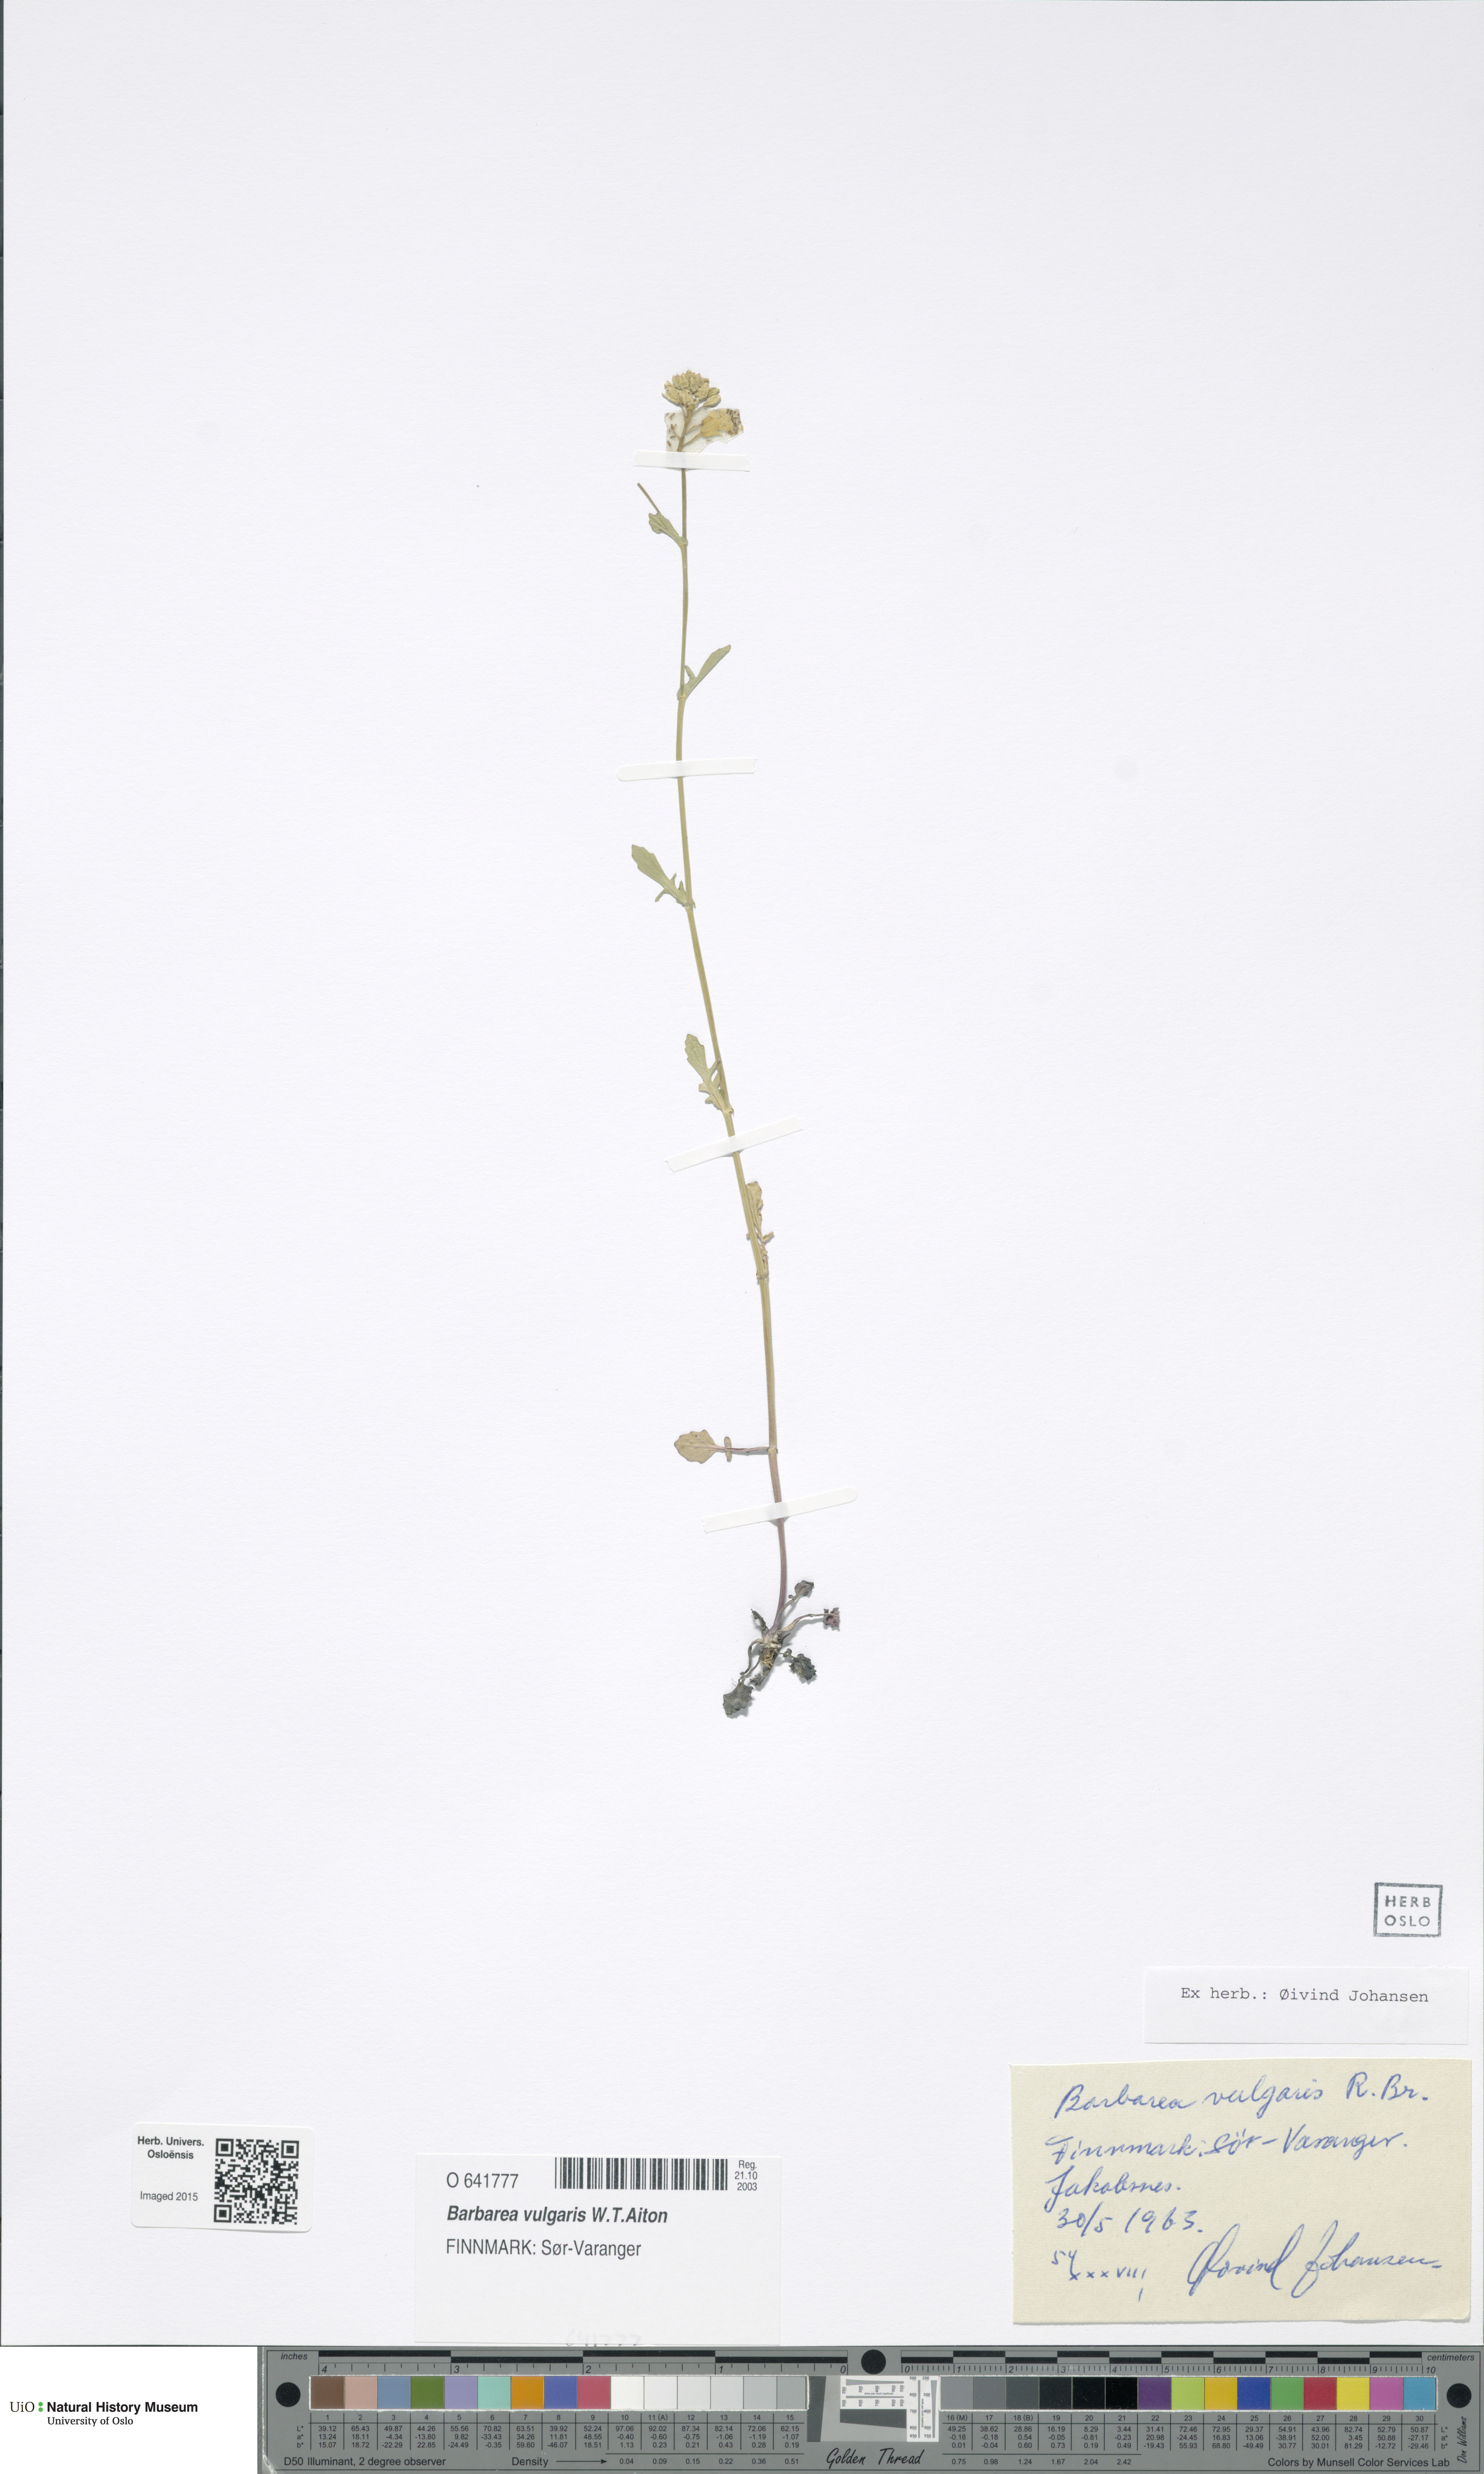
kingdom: Plantae
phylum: Tracheophyta
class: Magnoliopsida
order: Brassicales
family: Brassicaceae
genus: Barbarea
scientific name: Barbarea vulgaris
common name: Cressy-greens
